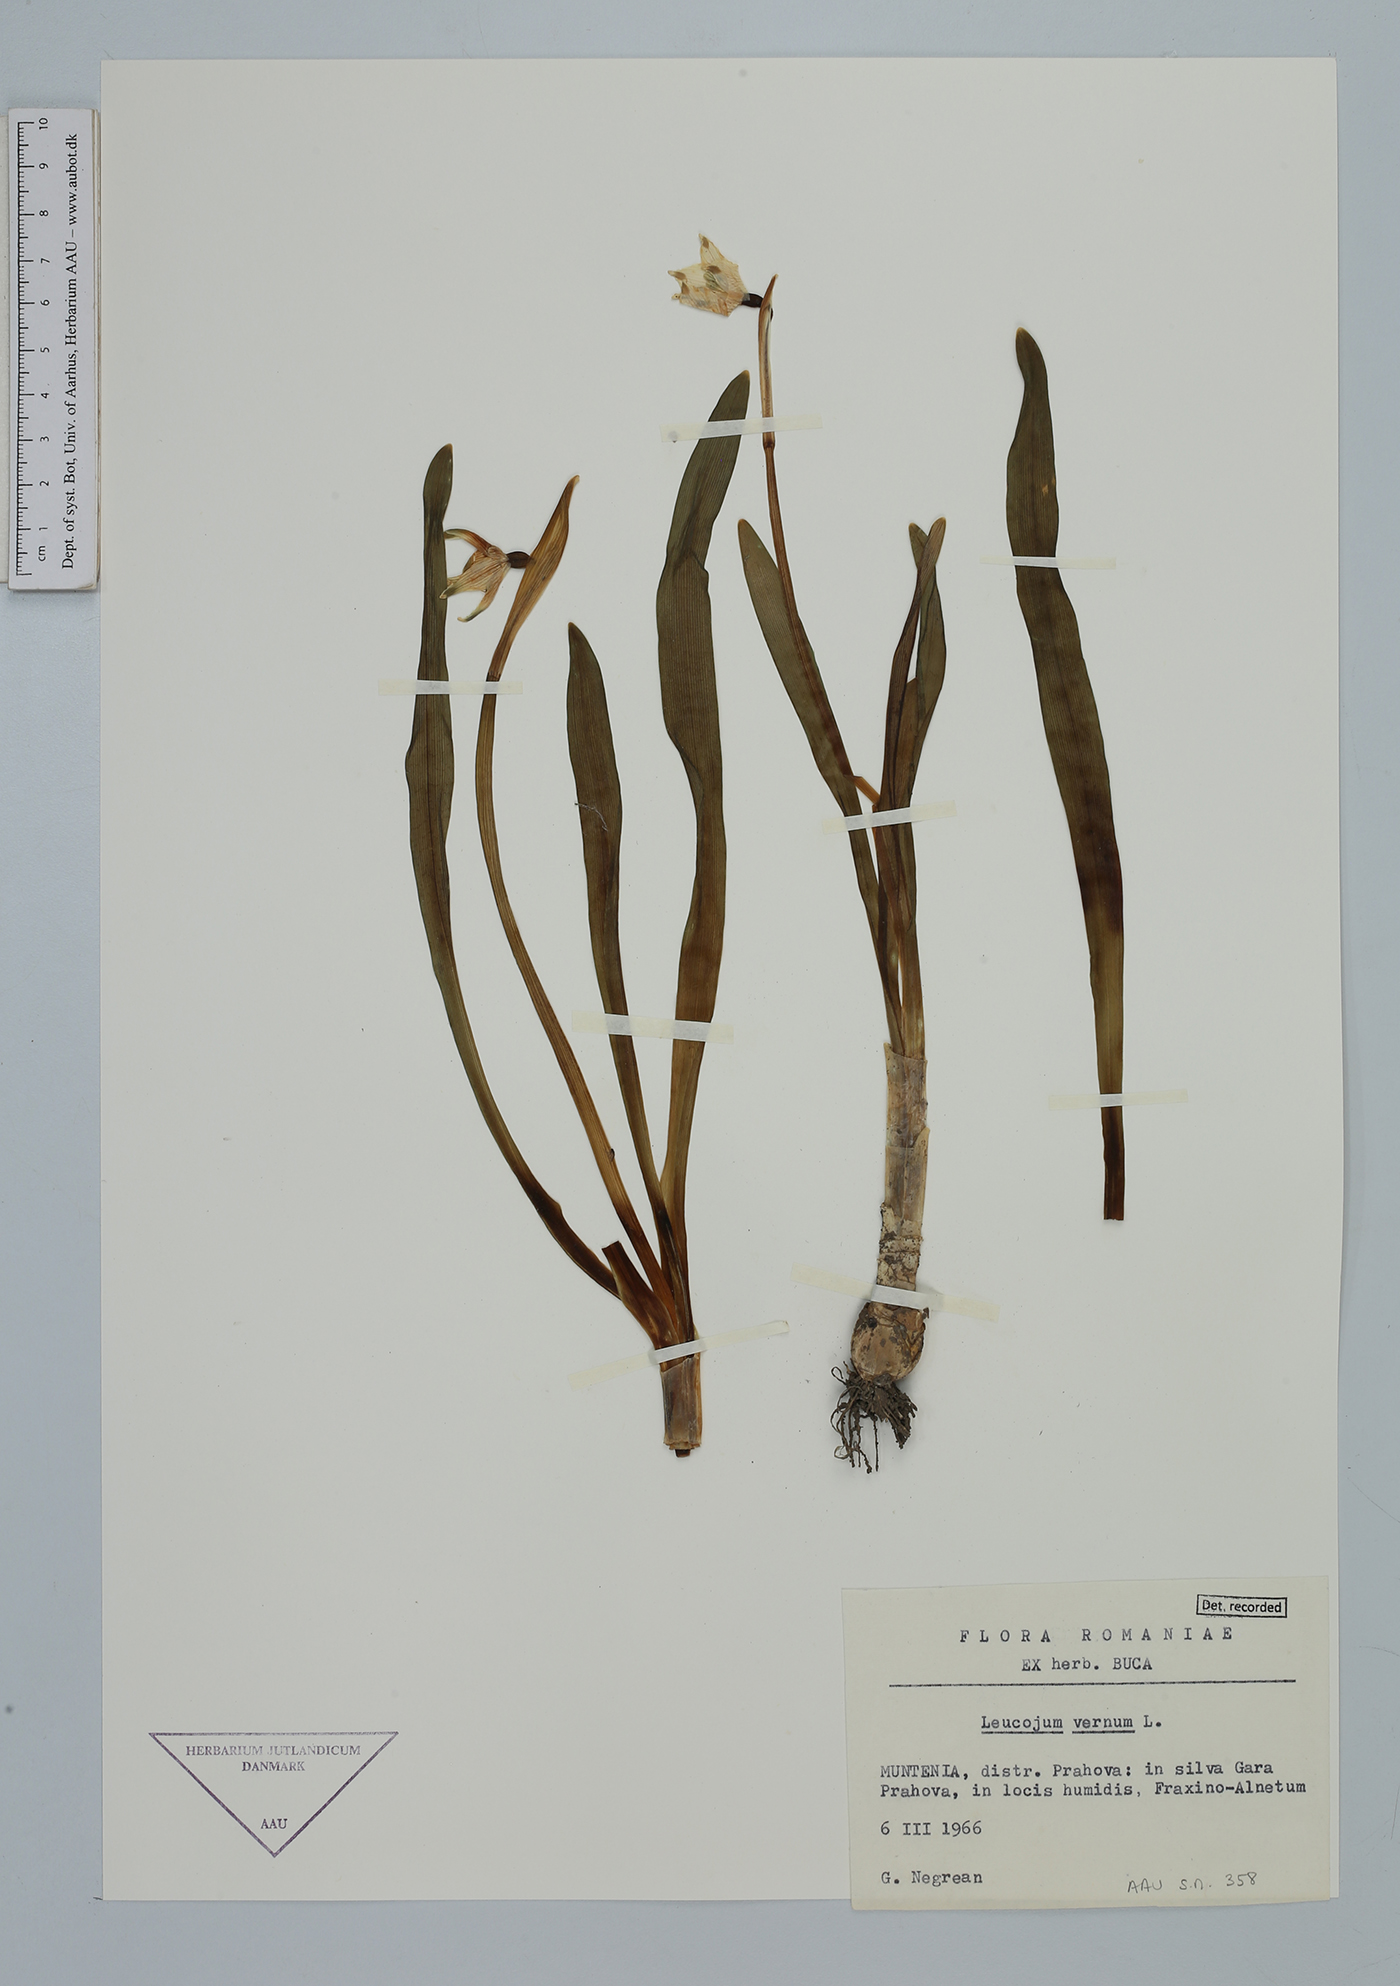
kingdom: Plantae
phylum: Tracheophyta
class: Liliopsida
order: Asparagales
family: Amaryllidaceae
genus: Leucojum
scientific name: Leucojum vernum
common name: Spring snowflake
